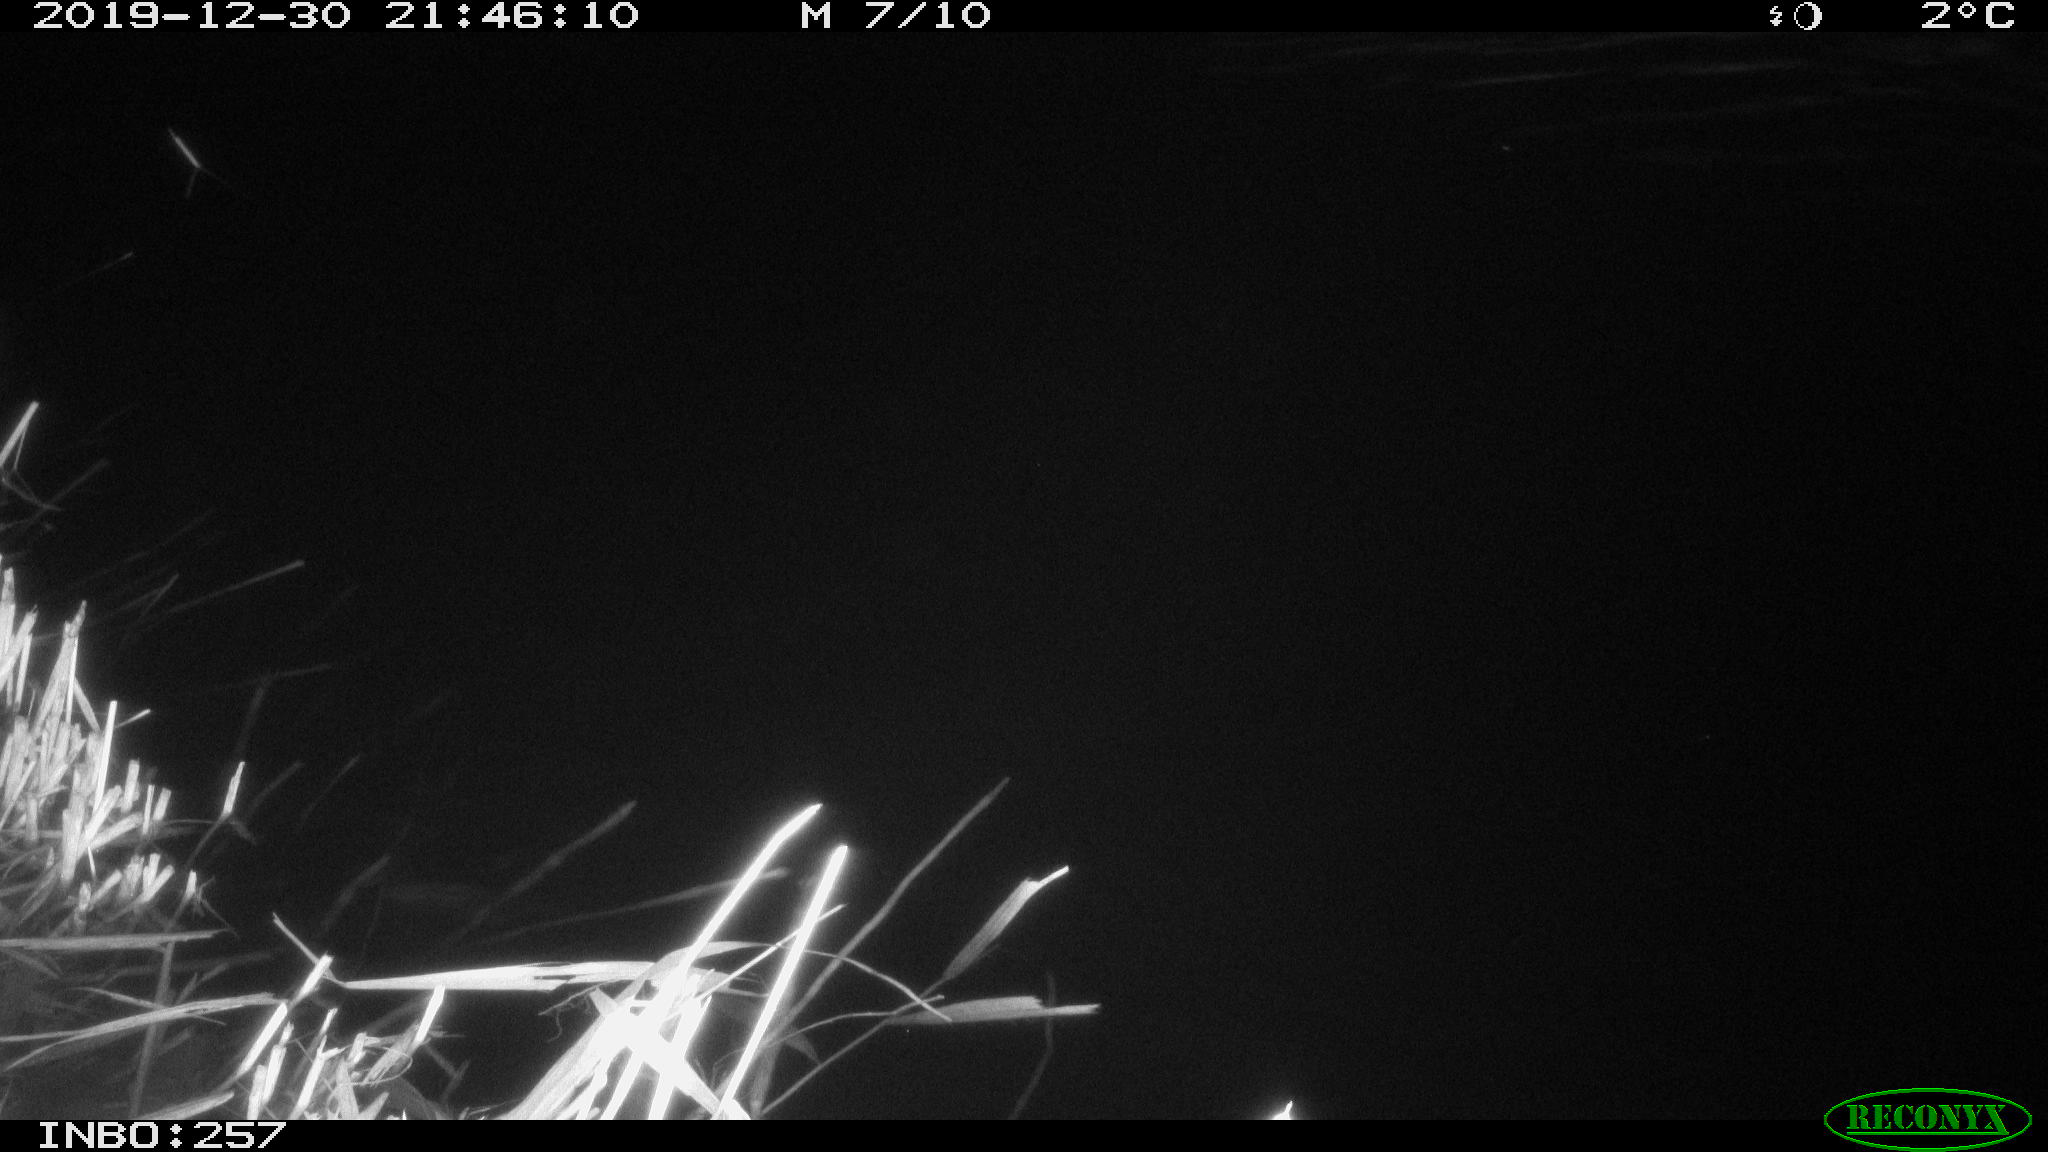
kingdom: Animalia
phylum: Chordata
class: Aves
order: Anseriformes
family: Anatidae
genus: Anas
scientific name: Anas platyrhynchos
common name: Mallard
